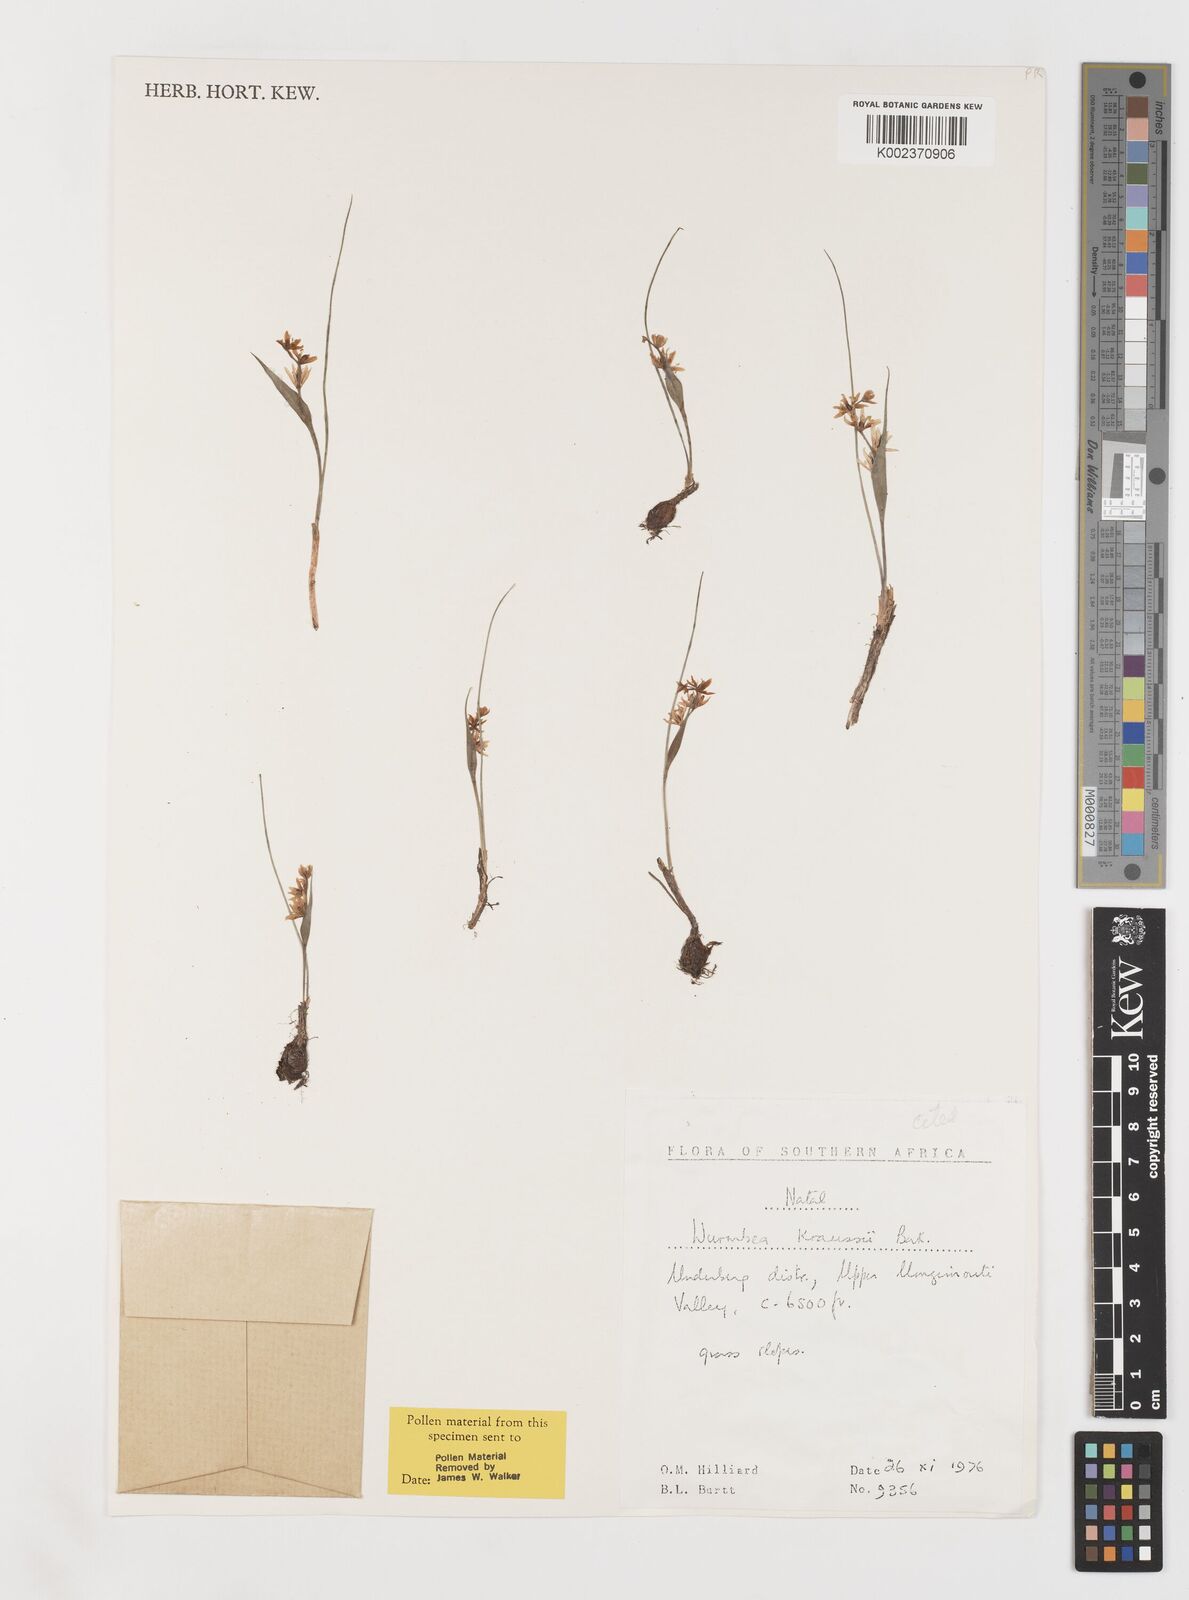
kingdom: Plantae
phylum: Tracheophyta
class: Liliopsida
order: Liliales
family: Colchicaceae
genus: Wurmbea
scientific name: Wurmbea kraussii
